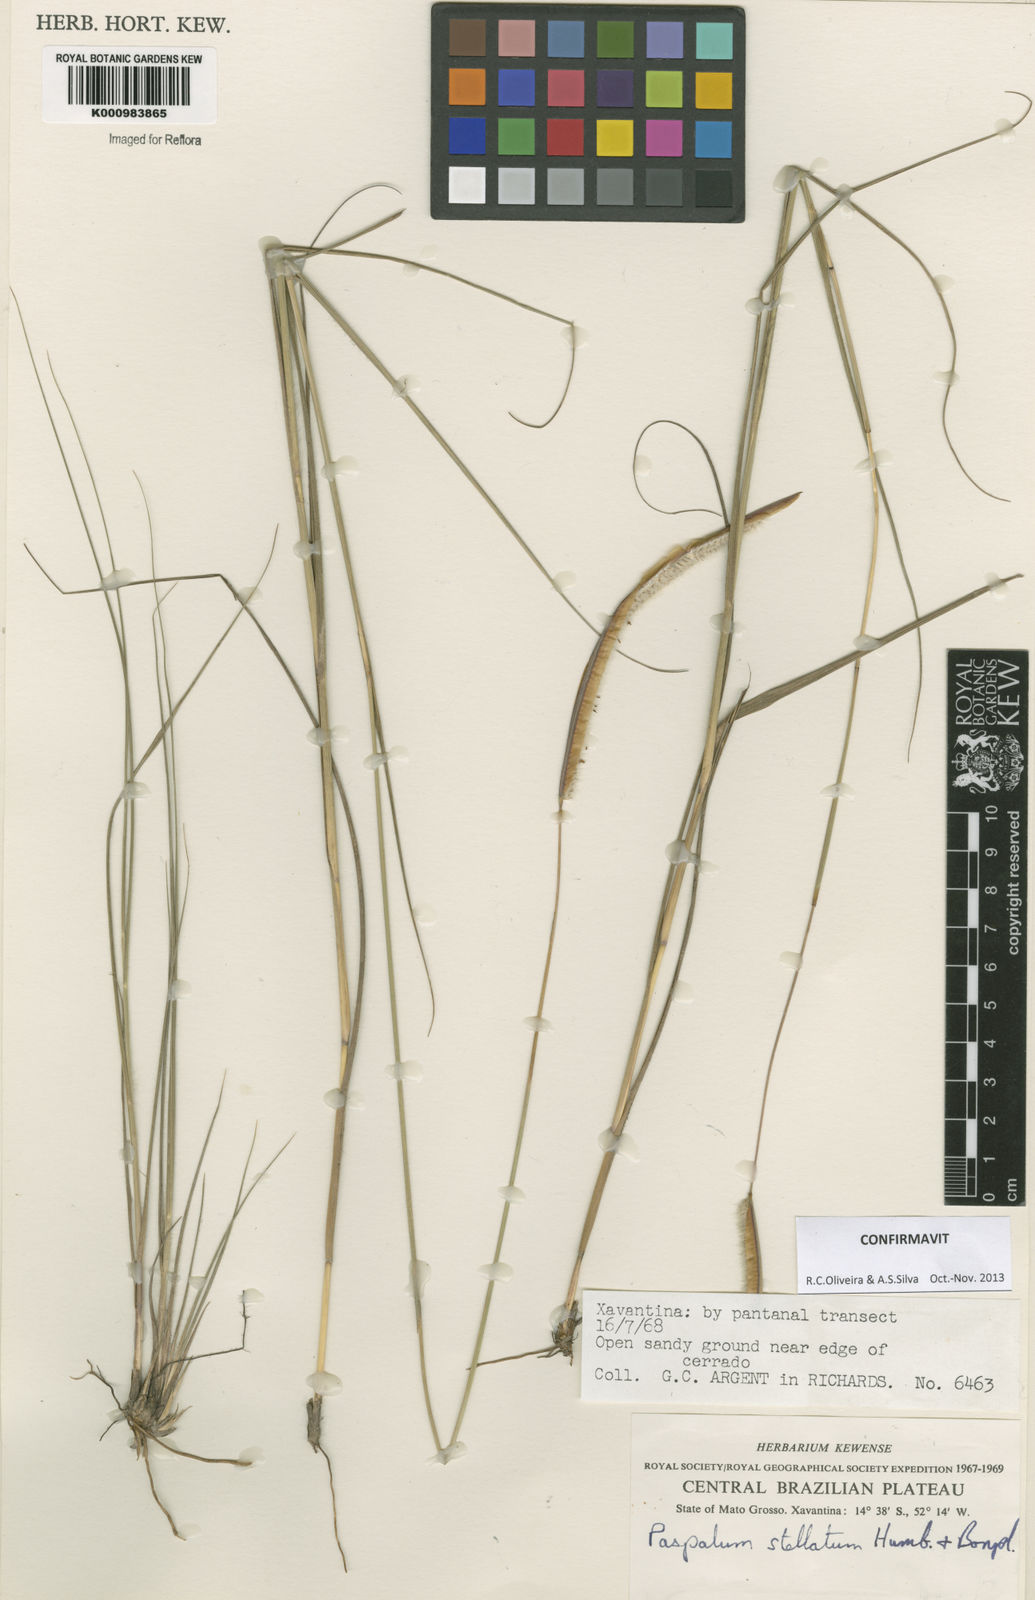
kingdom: Plantae
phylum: Tracheophyta
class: Liliopsida
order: Poales
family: Poaceae
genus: Paspalum
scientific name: Paspalum
